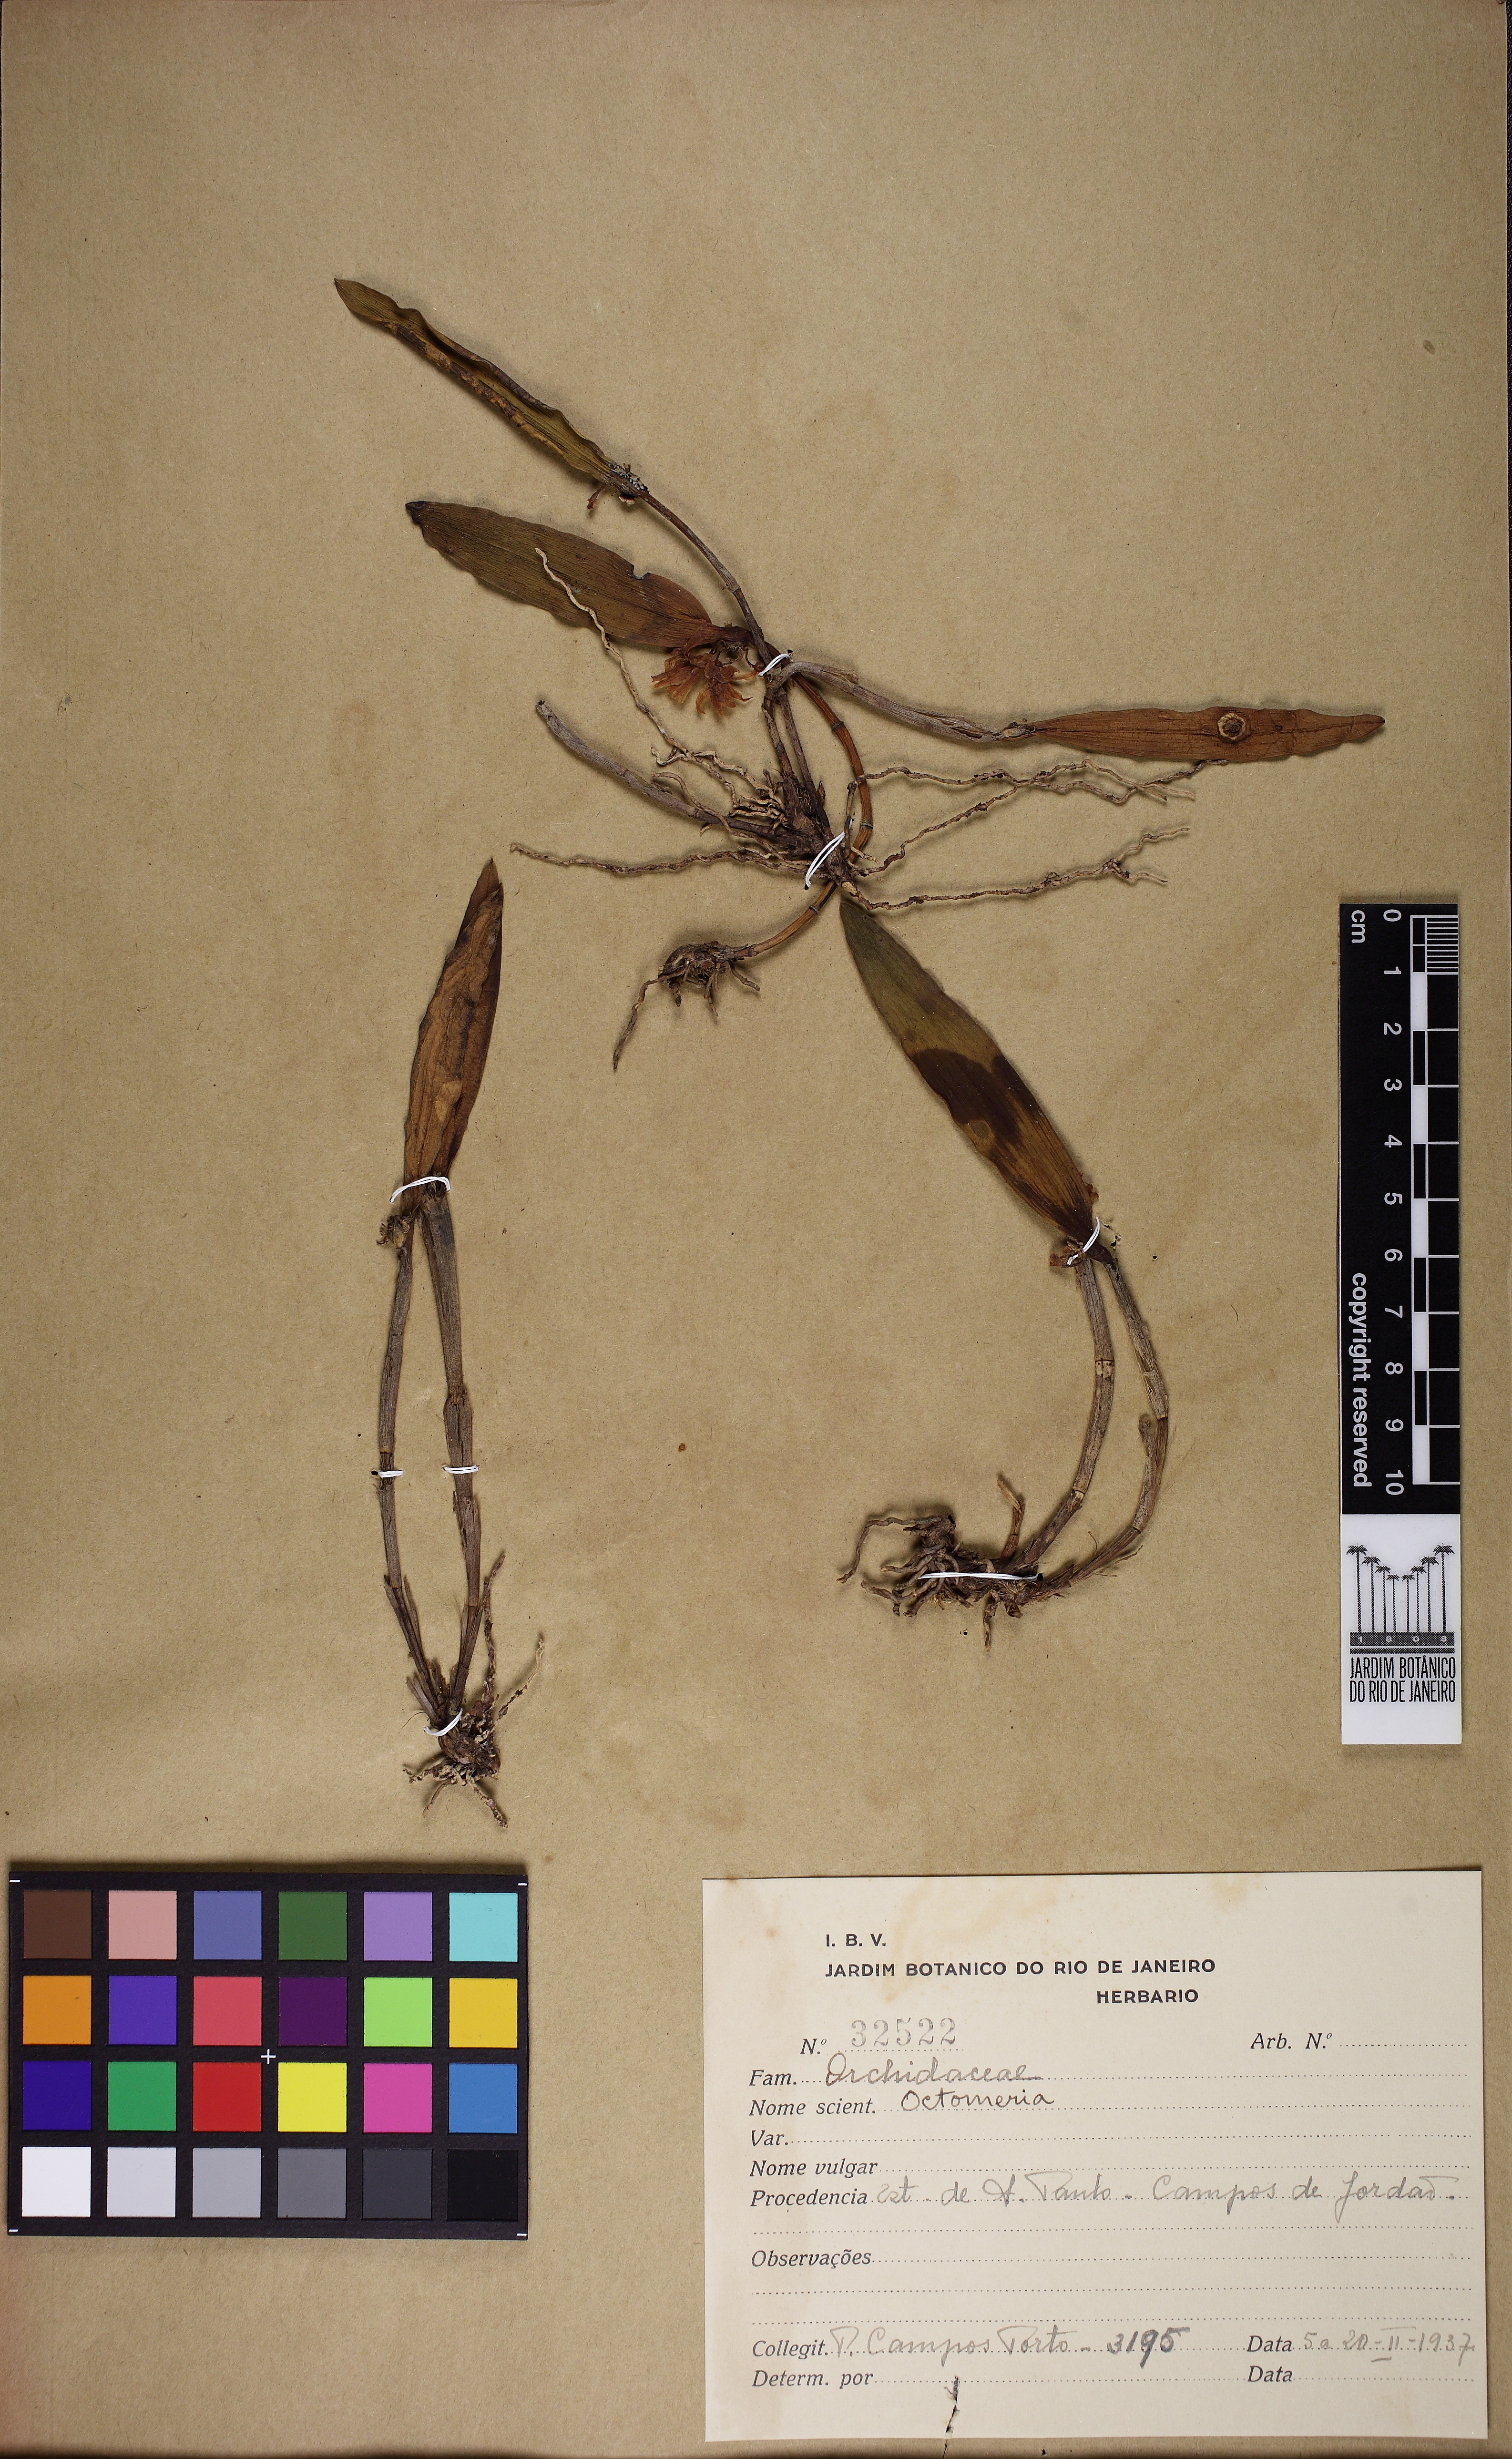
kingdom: Plantae
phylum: Tracheophyta
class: Liliopsida
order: Asparagales
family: Orchidaceae
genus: Octomeria
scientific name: Octomeria crassifolia
